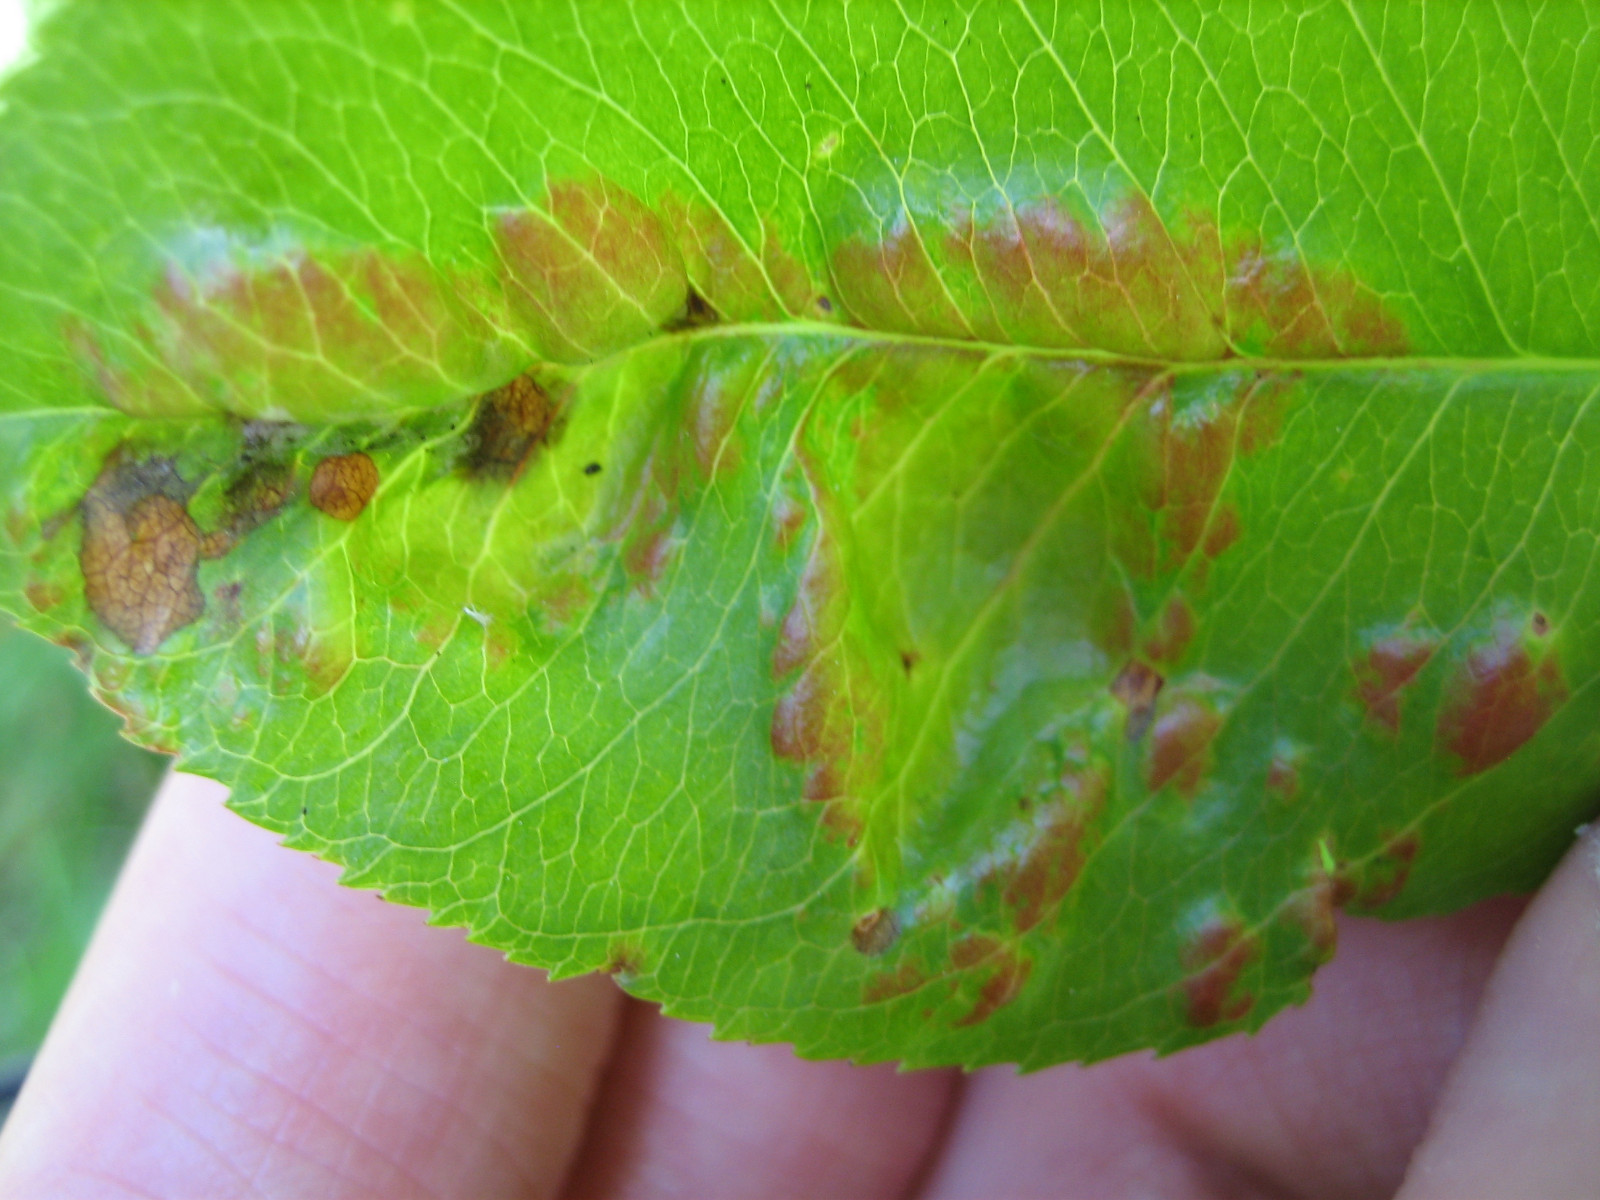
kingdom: Fungi
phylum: Ascomycota
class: Taphrinomycetes
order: Taphrinales
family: Taphrinaceae
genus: Taphrina
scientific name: Taphrina farlowii
